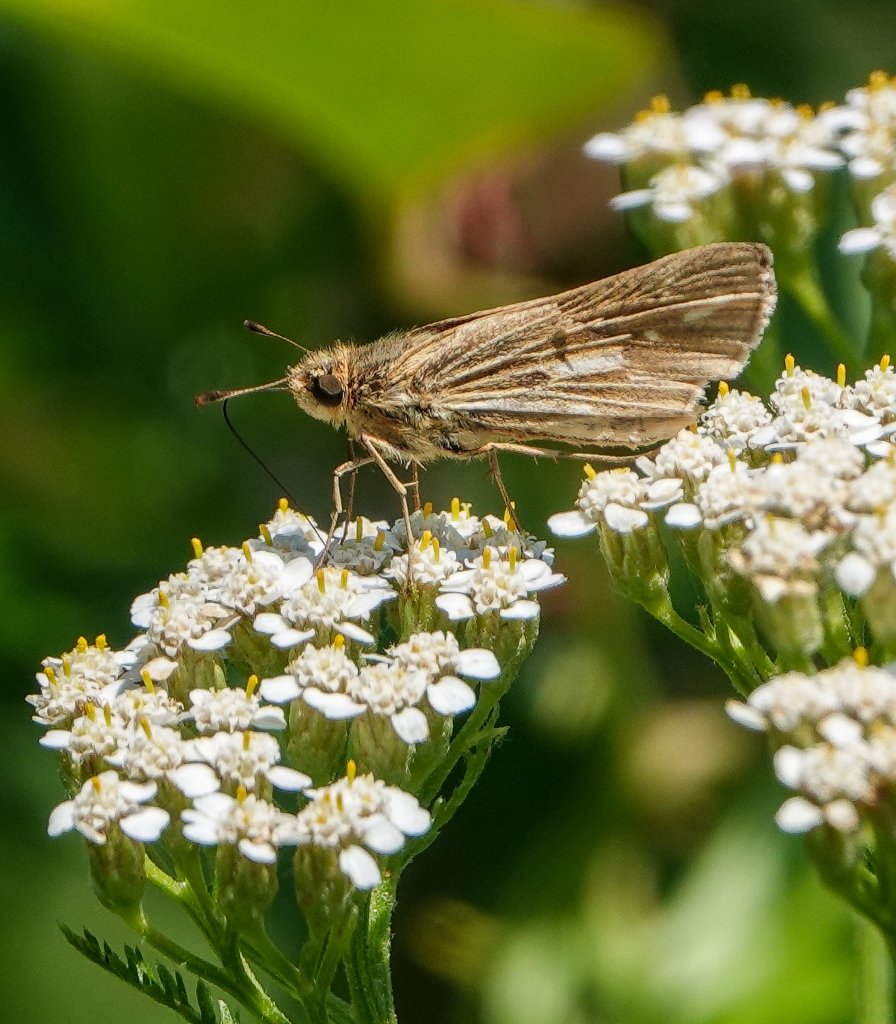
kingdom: Animalia
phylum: Arthropoda
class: Insecta
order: Lepidoptera
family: Hesperiidae
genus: Panoquina
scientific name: Panoquina panoquin
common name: Salt Marsh Skipper
